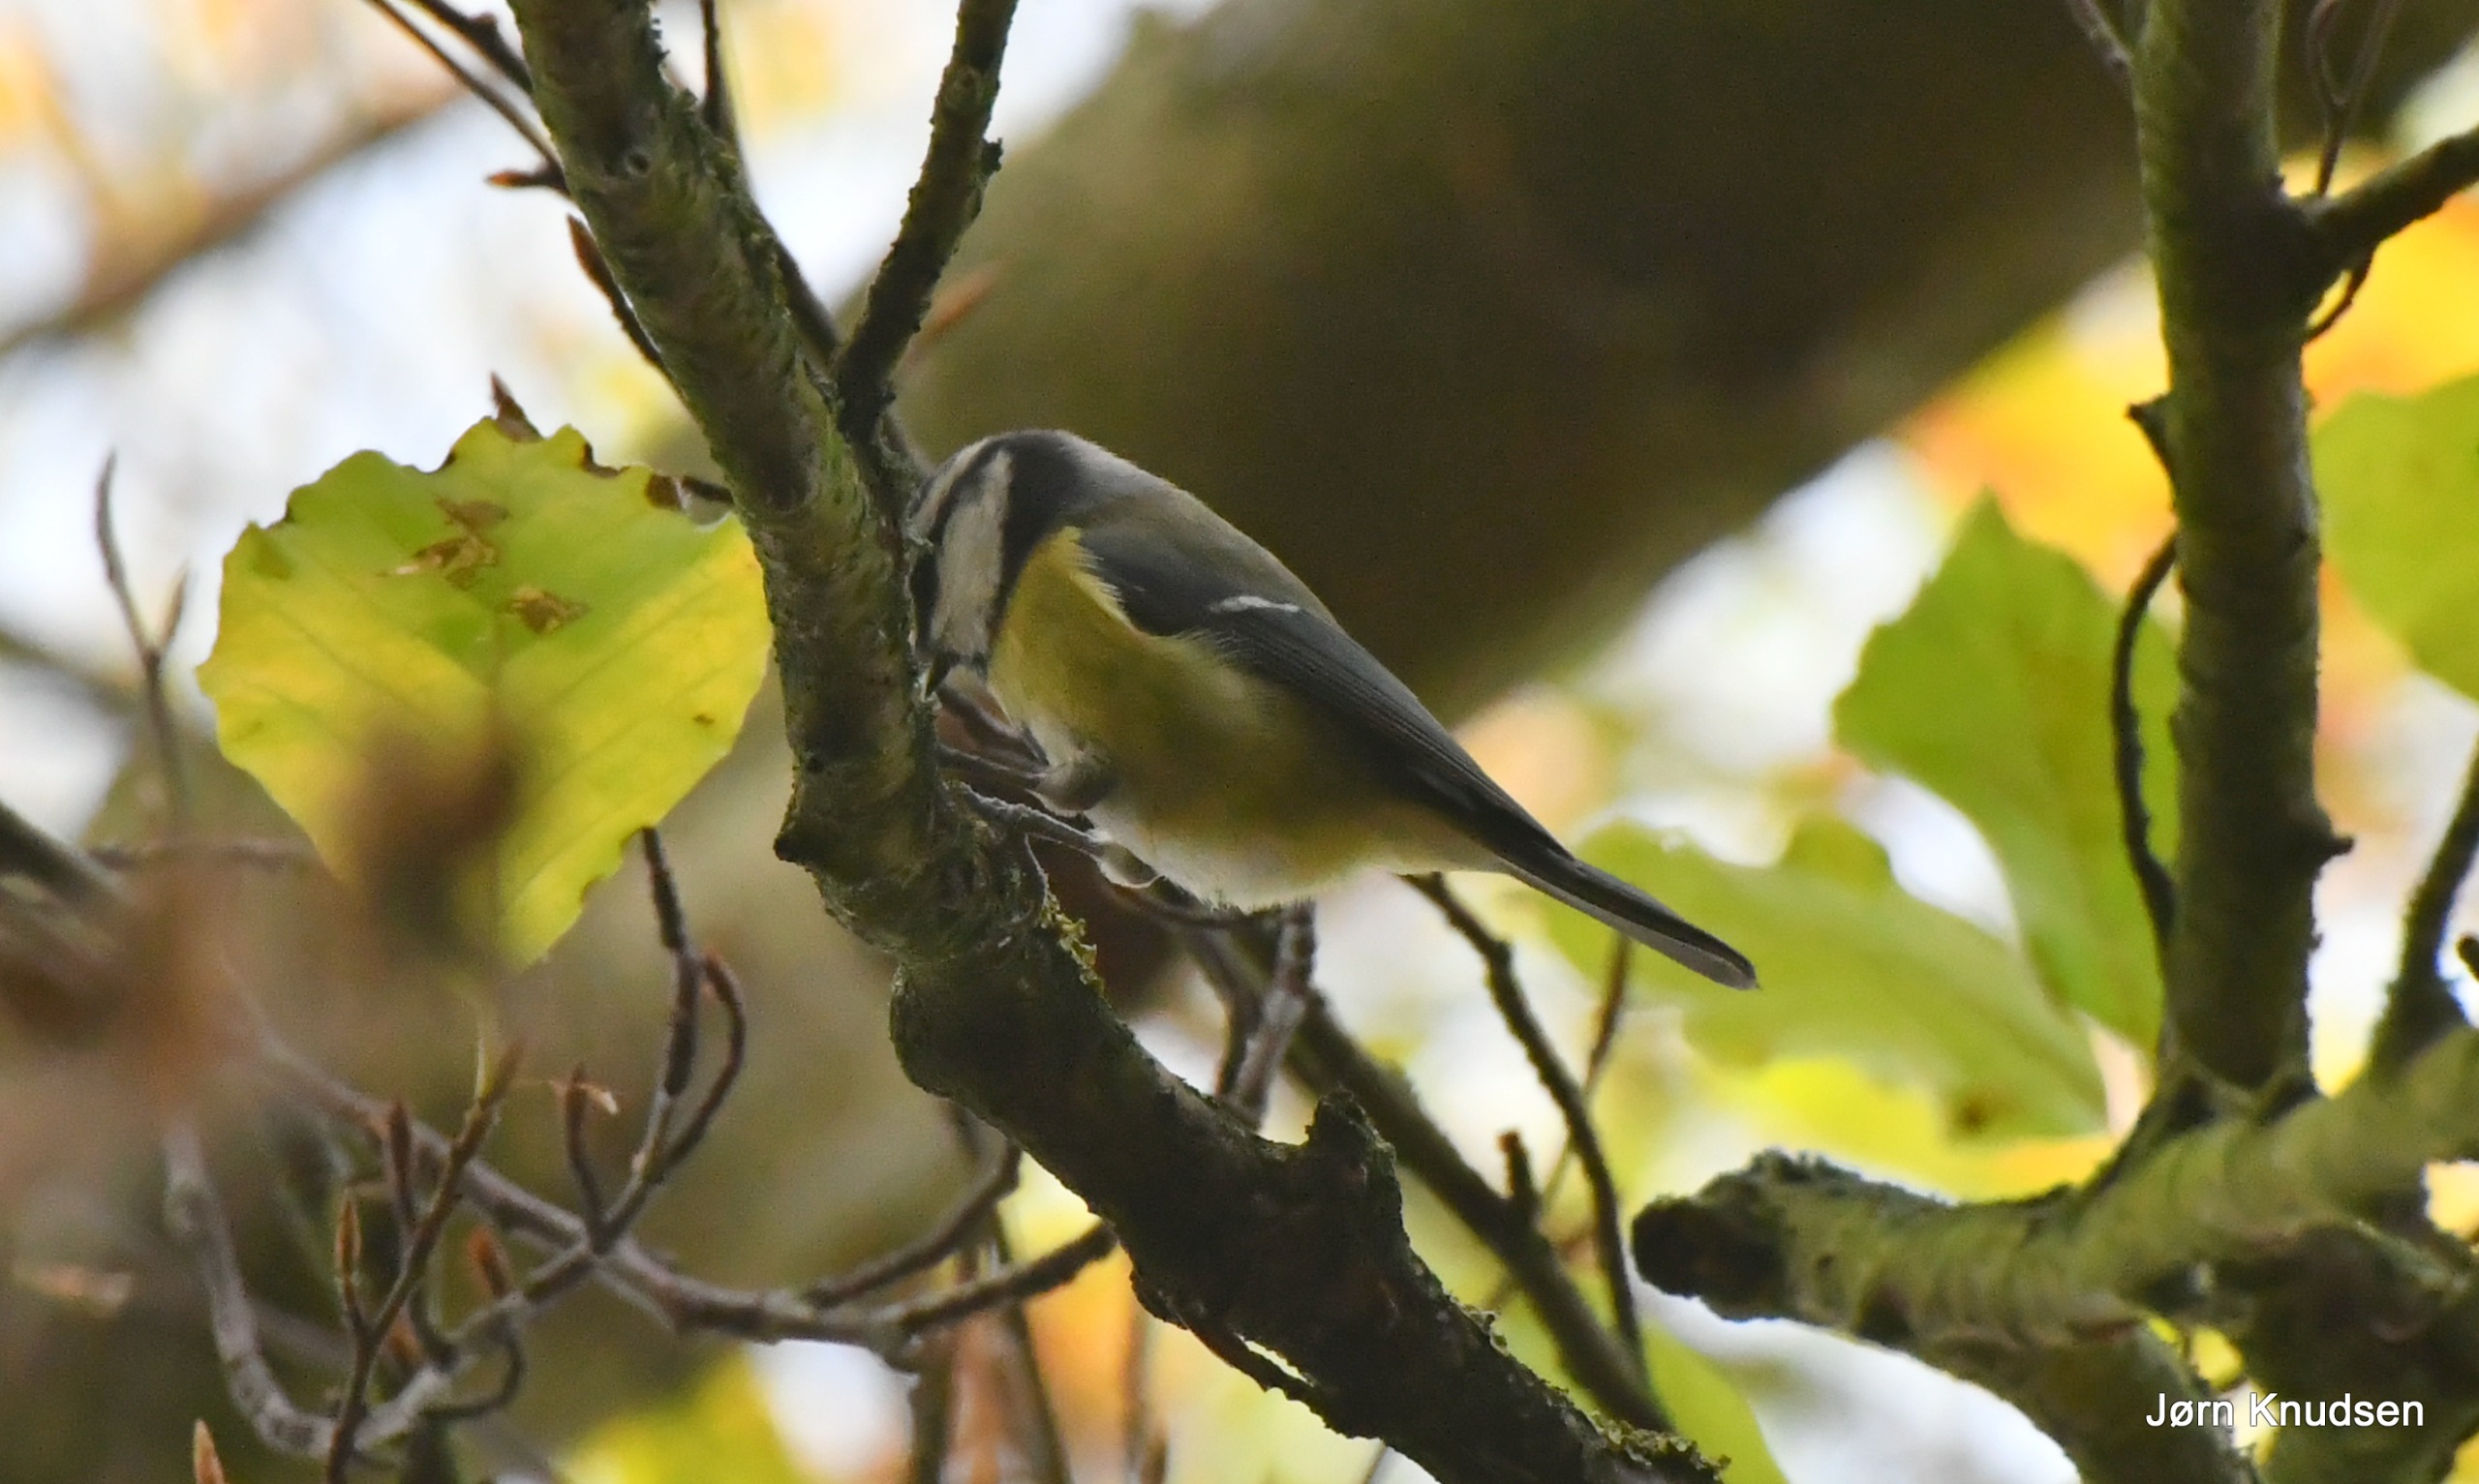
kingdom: Animalia
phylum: Chordata
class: Aves
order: Passeriformes
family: Paridae
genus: Cyanistes
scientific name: Cyanistes caeruleus
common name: Blåmejse
